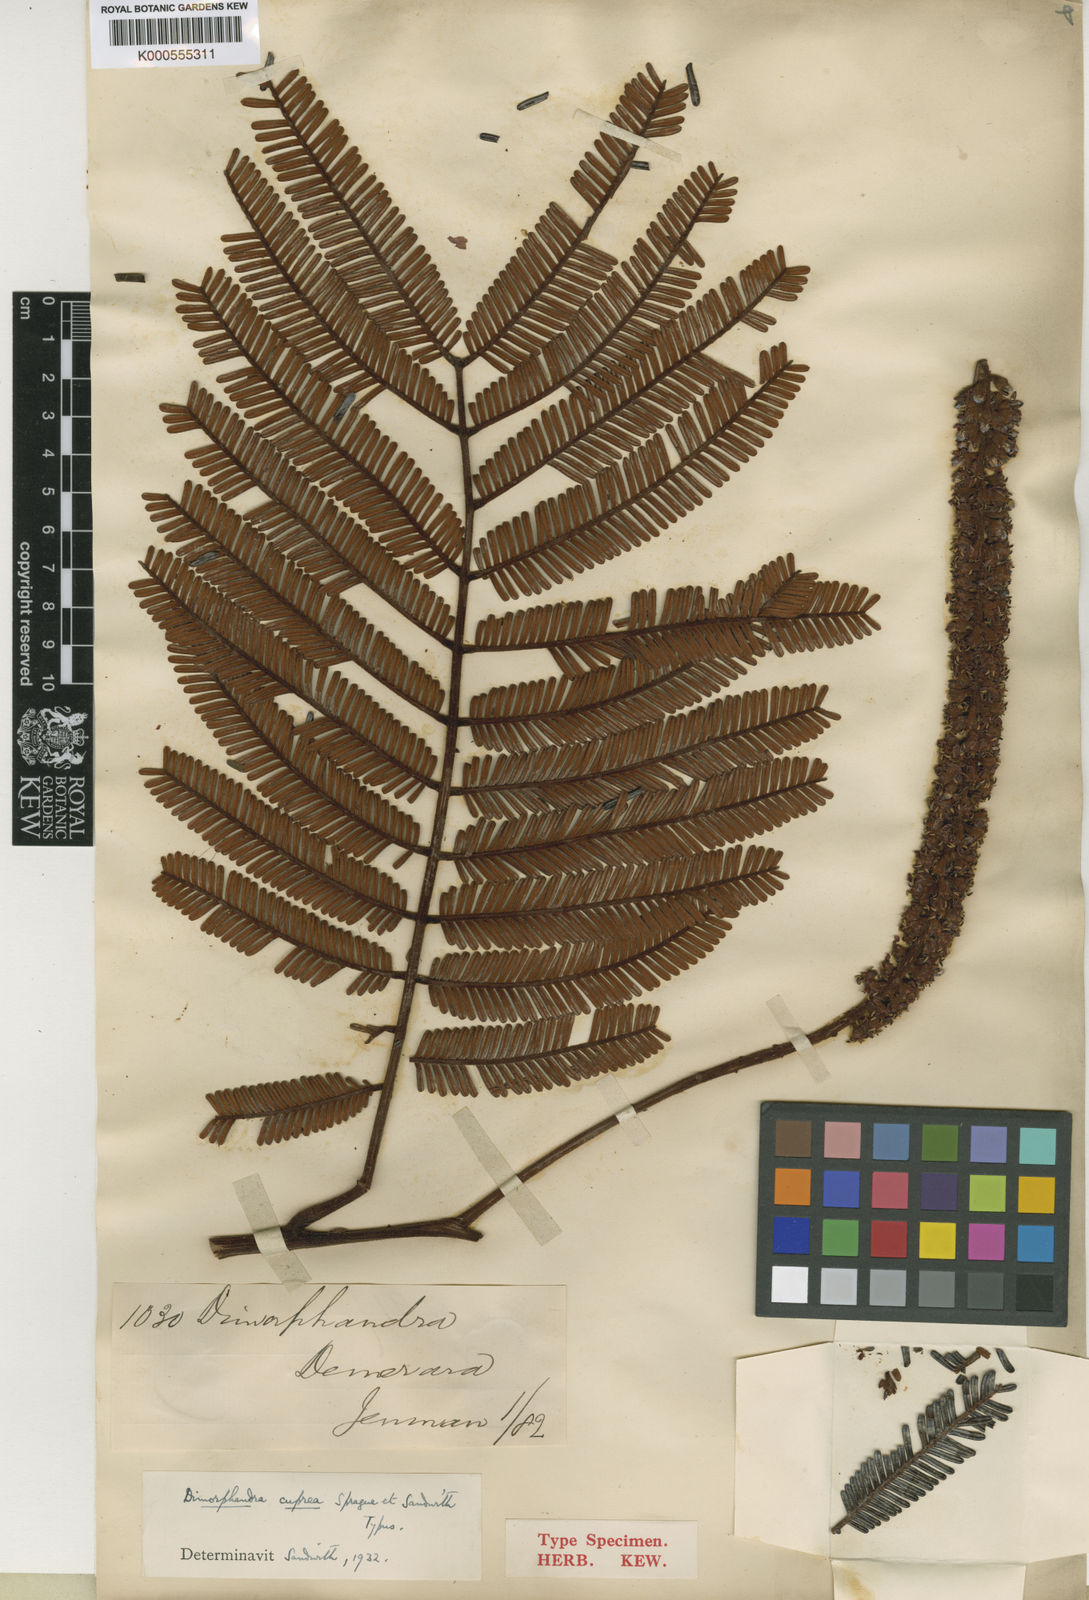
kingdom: Plantae
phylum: Tracheophyta
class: Magnoliopsida
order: Fabales
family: Fabaceae
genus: Dimorphandra
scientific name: Dimorphandra
